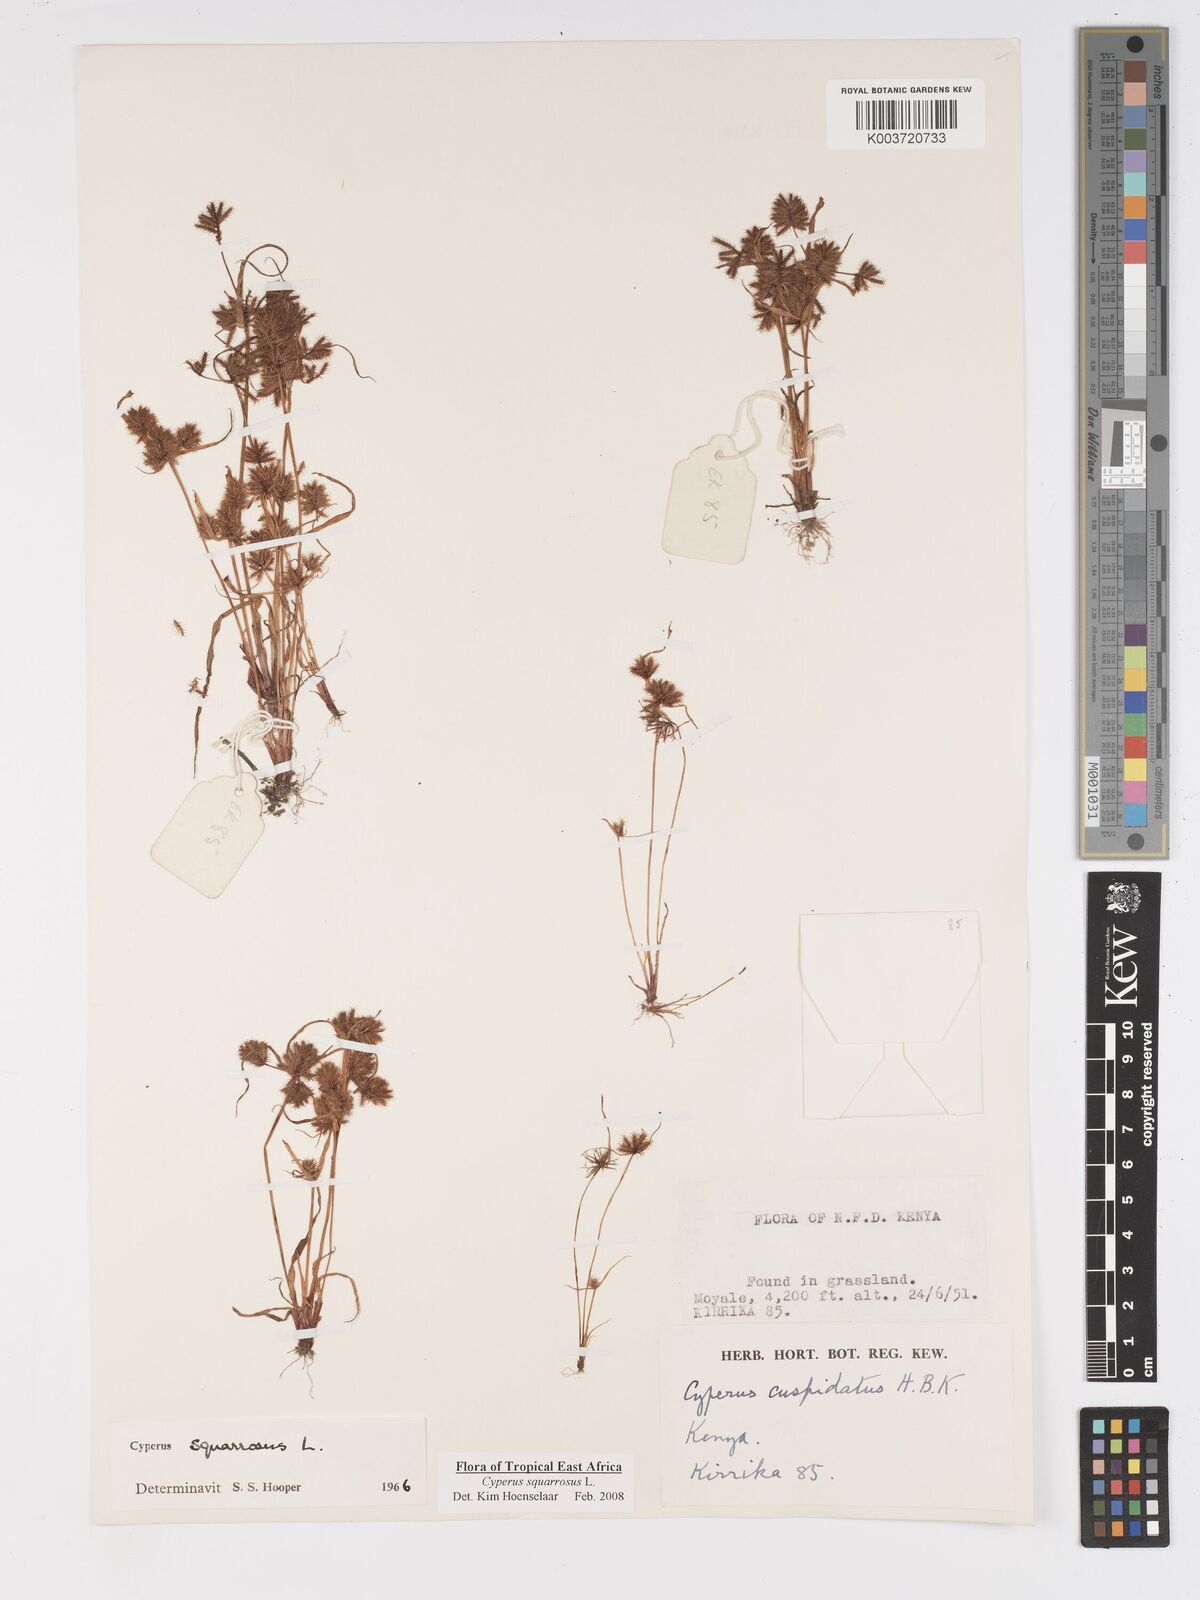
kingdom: Plantae
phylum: Tracheophyta
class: Liliopsida
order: Poales
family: Cyperaceae
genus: Cyperus
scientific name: Cyperus squarrosus
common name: Awned cyperus
